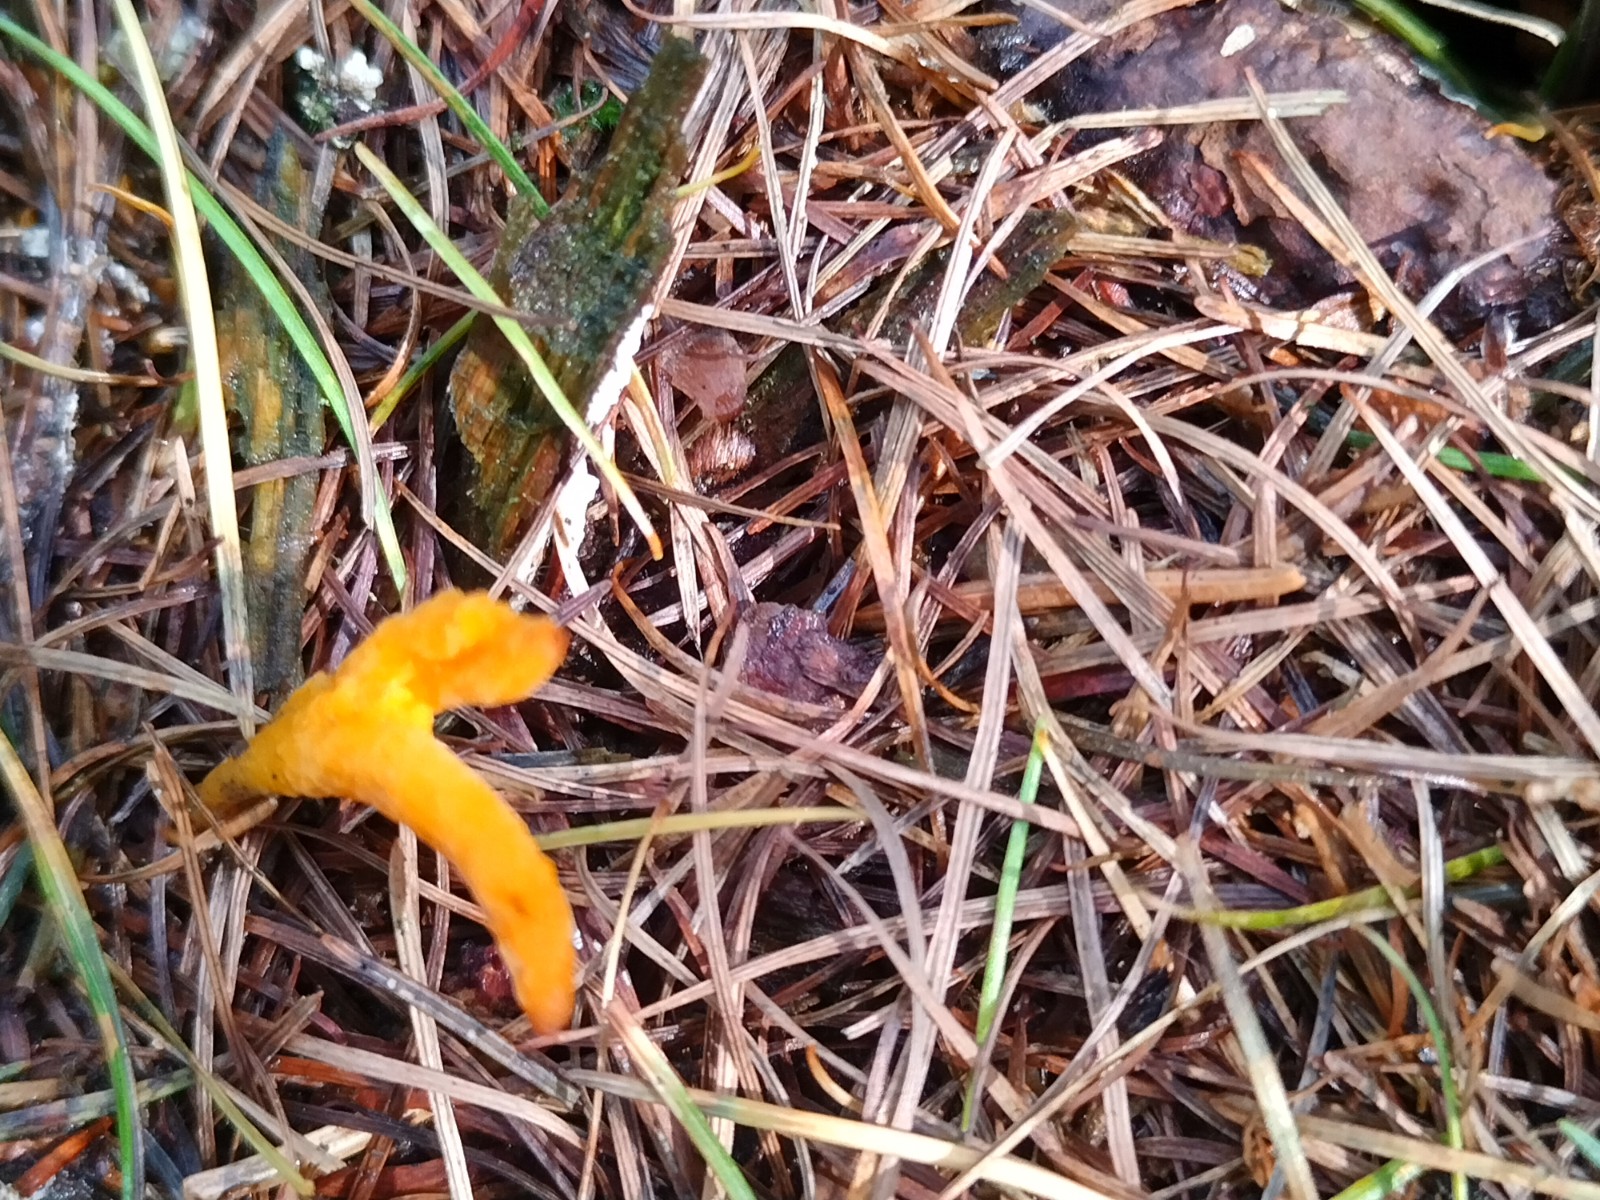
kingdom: Fungi
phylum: Basidiomycota
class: Dacrymycetes
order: Dacrymycetales
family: Dacrymycetaceae
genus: Calocera
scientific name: Calocera
